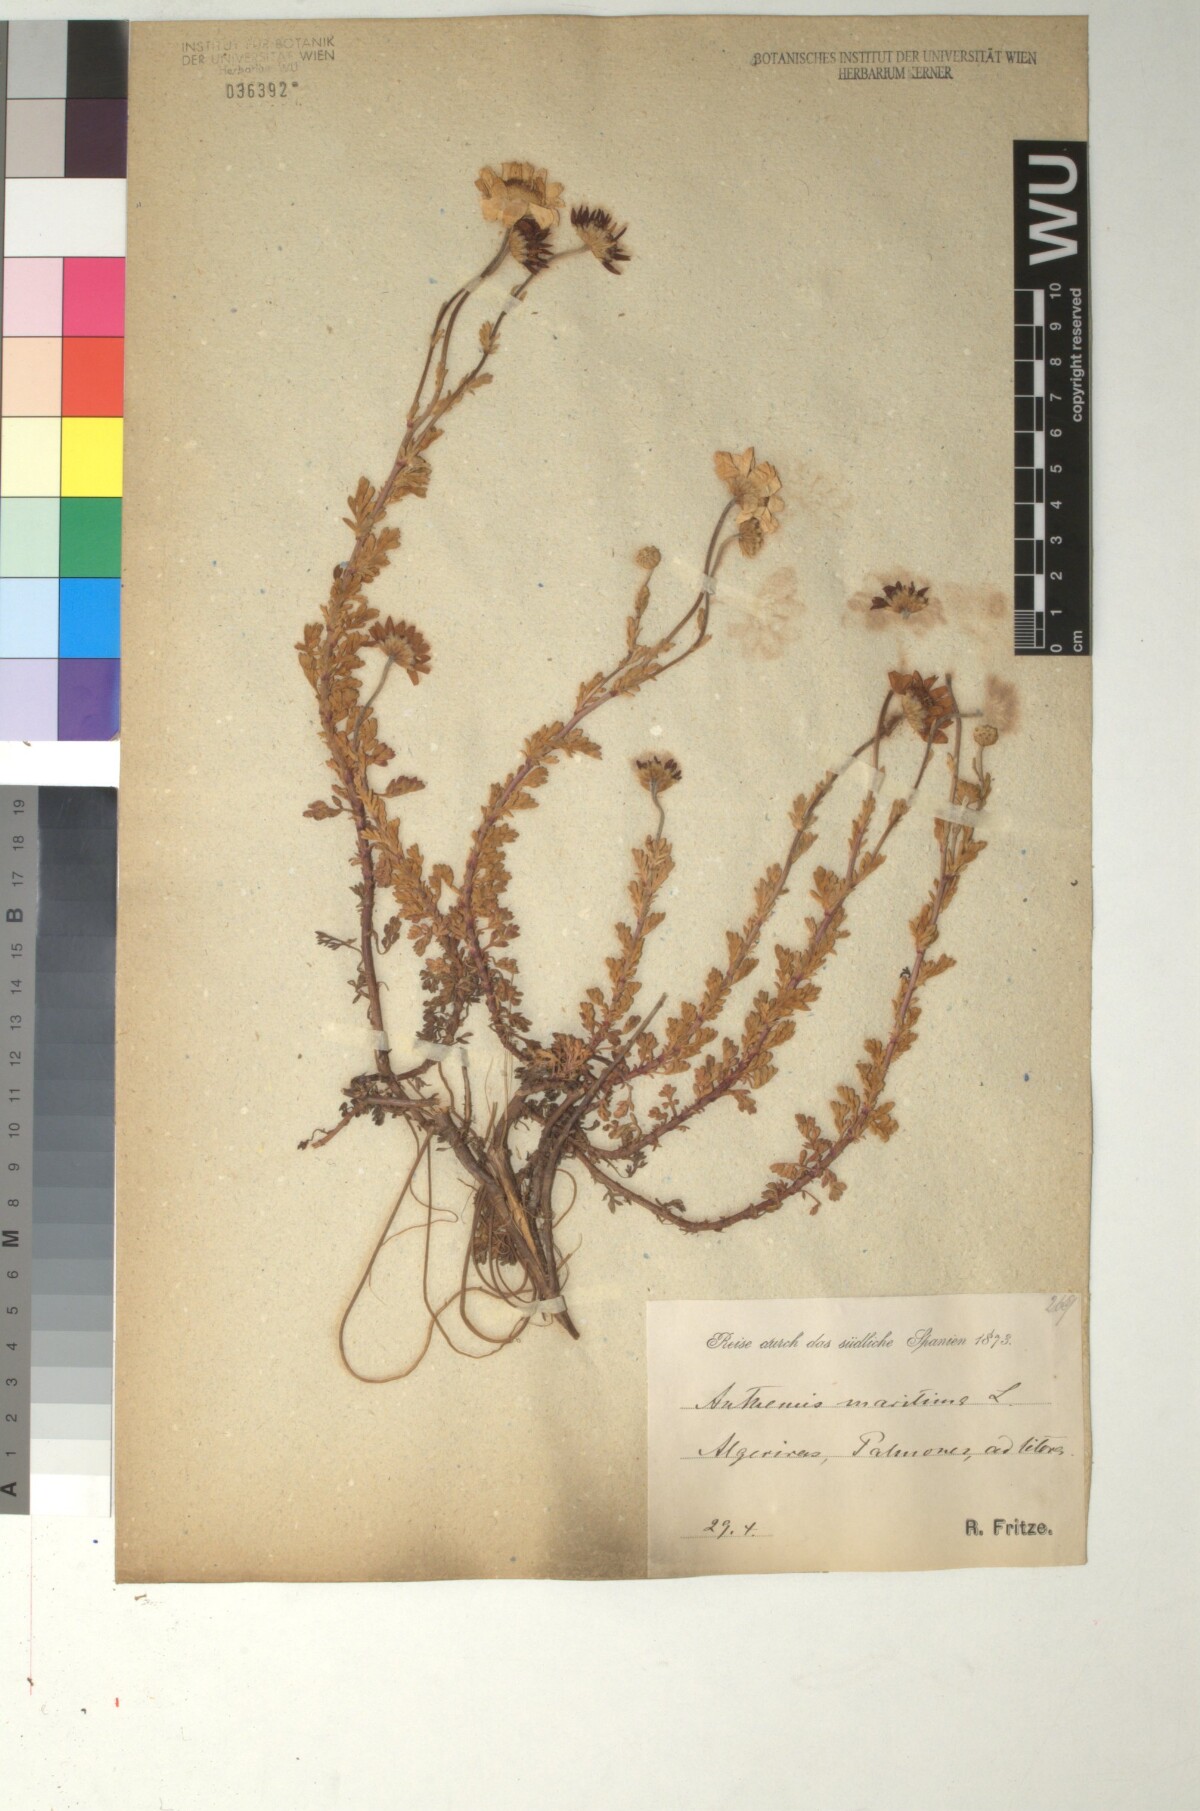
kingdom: Plantae
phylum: Tracheophyta
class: Magnoliopsida
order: Asterales
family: Asteraceae
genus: Anthemis
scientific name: Anthemis maritima
